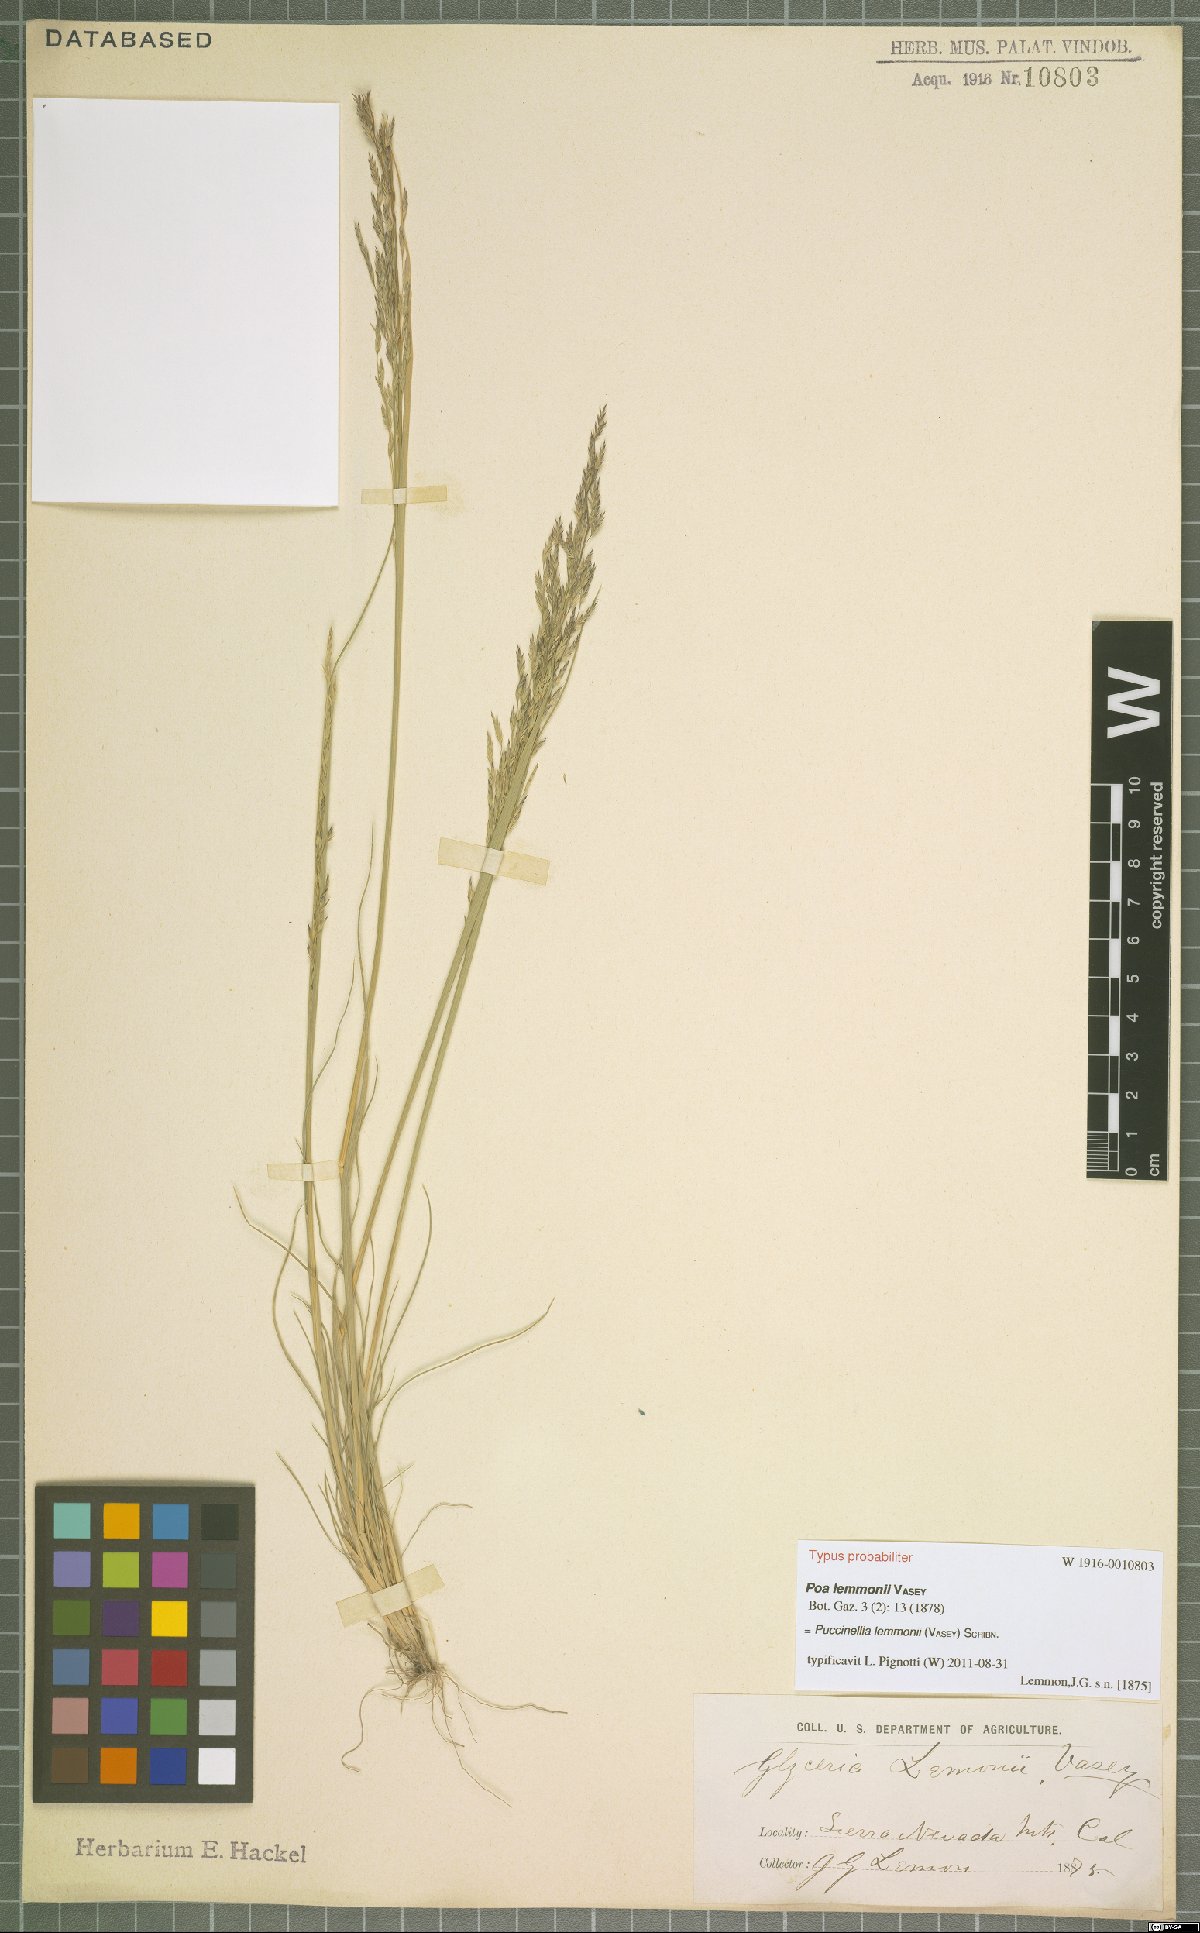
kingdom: Plantae
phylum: Tracheophyta
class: Liliopsida
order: Poales
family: Poaceae
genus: Puccinellia
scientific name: Puccinellia lemmonii
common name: Lemmon's alkali grass
